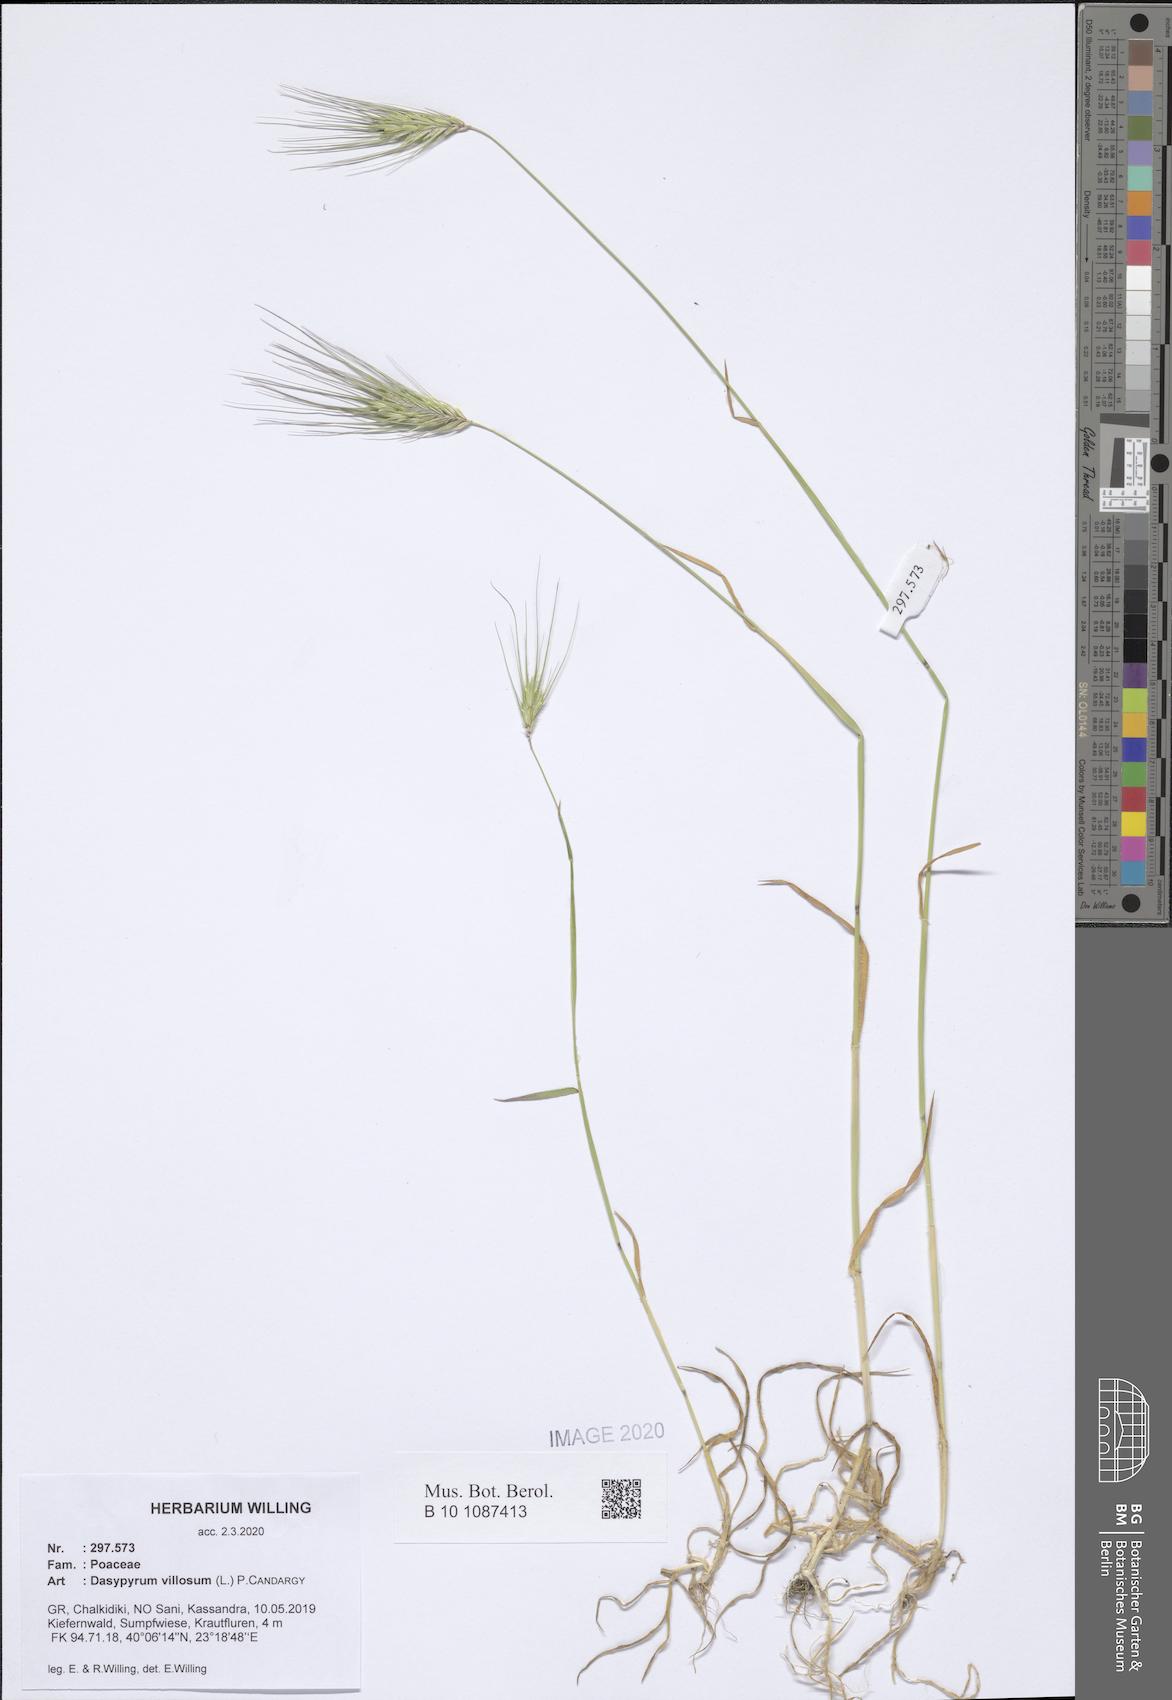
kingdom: Plantae
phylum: Tracheophyta
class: Liliopsida
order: Poales
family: Poaceae
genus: Dasypyrum
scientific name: Dasypyrum villosum
